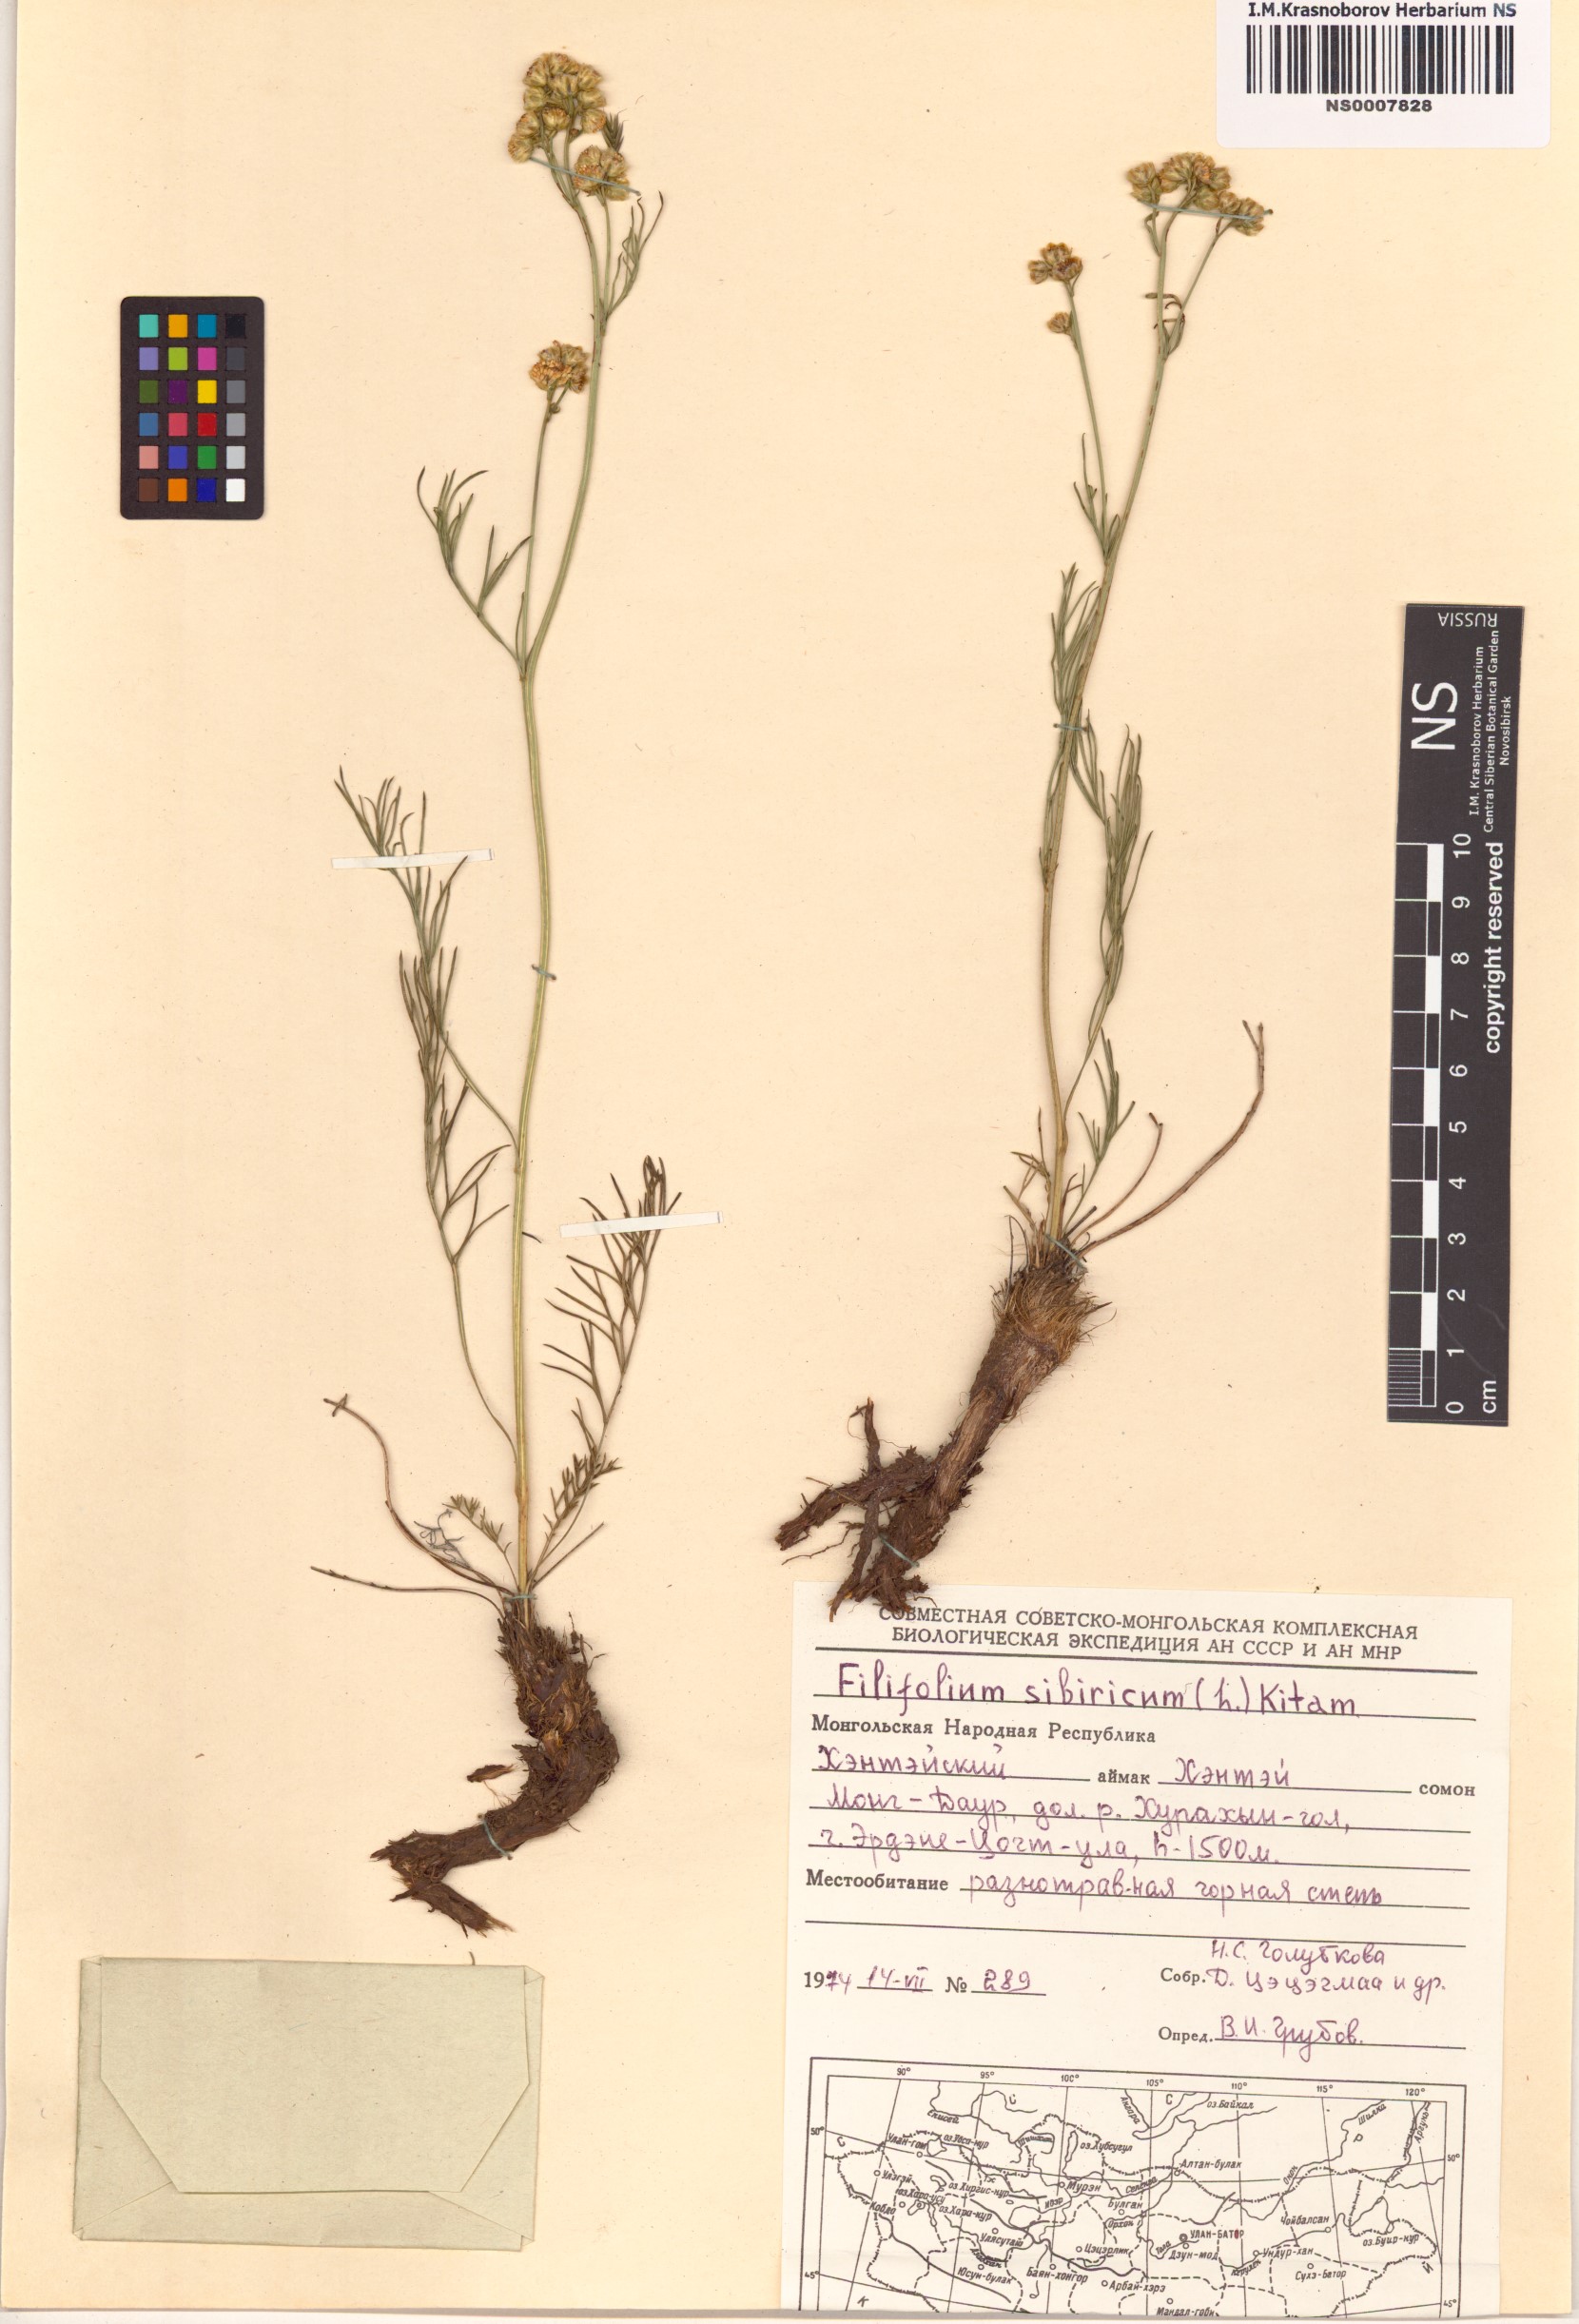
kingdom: Plantae
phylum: Tracheophyta
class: Magnoliopsida
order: Asterales
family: Asteraceae
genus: Filifolium
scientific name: Filifolium sibiricum
